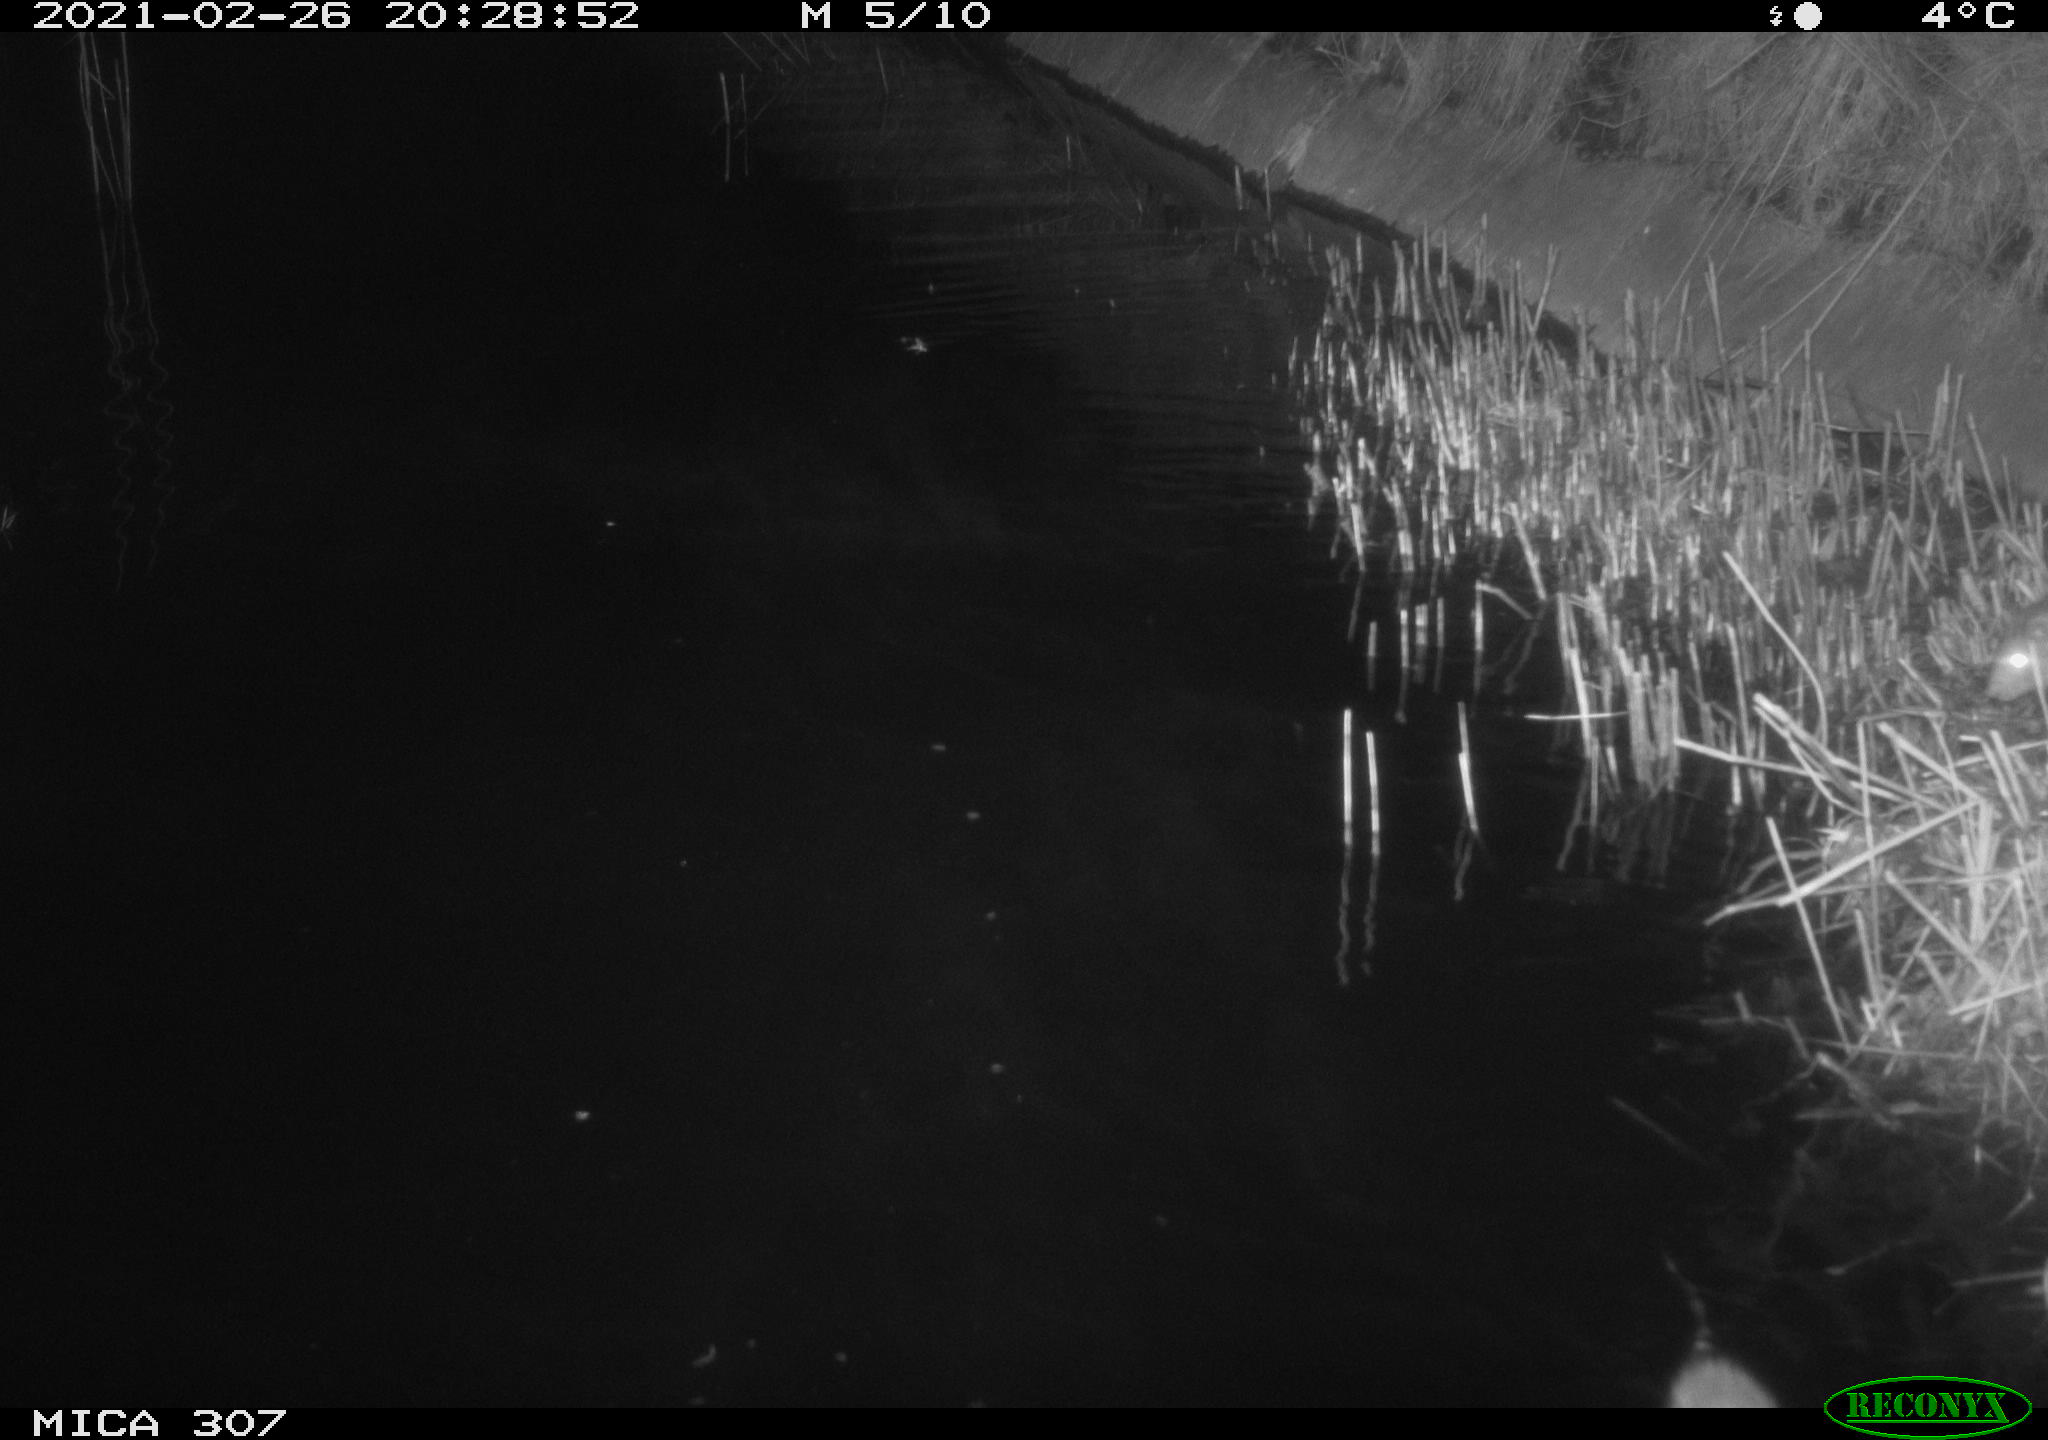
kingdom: Animalia
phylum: Chordata
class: Mammalia
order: Rodentia
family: Muridae
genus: Rattus
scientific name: Rattus norvegicus
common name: Brown rat
